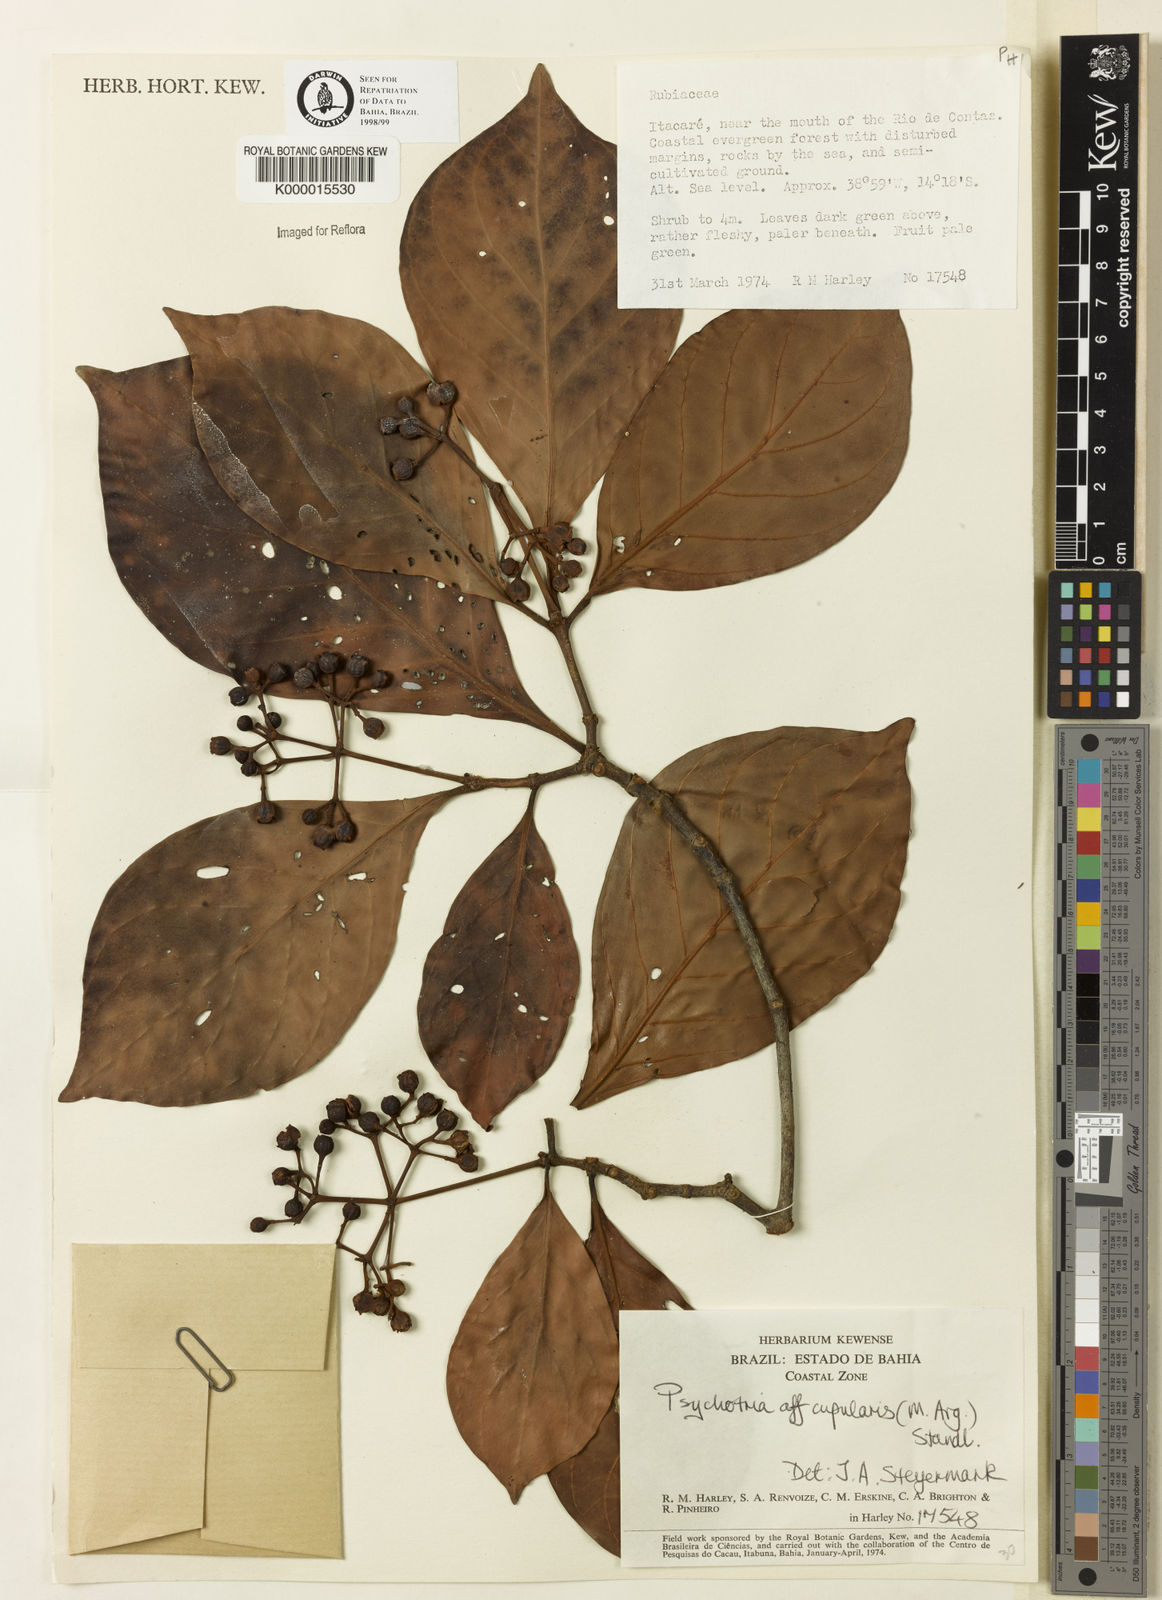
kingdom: Plantae
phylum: Tracheophyta
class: Magnoliopsida
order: Gentianales
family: Rubiaceae
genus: Psychotria
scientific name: Psychotria carthagenensis
